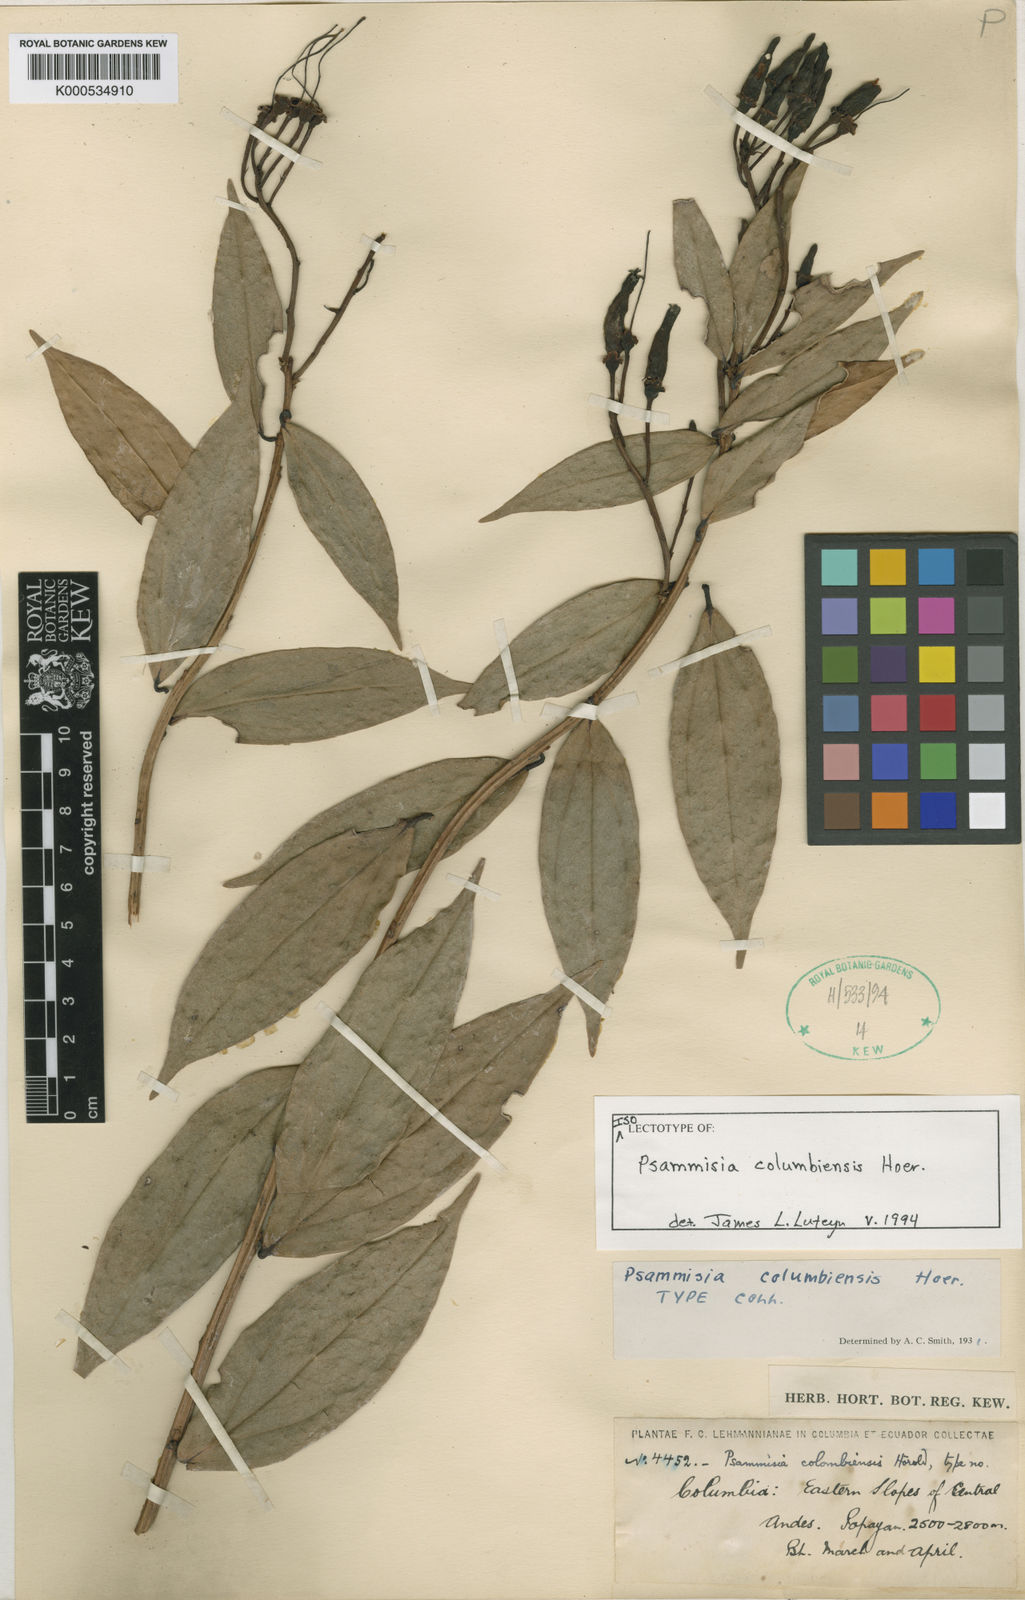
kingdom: Plantae
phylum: Tracheophyta
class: Magnoliopsida
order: Ericales
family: Ericaceae
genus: Psammisia
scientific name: Psammisia columbiensis
